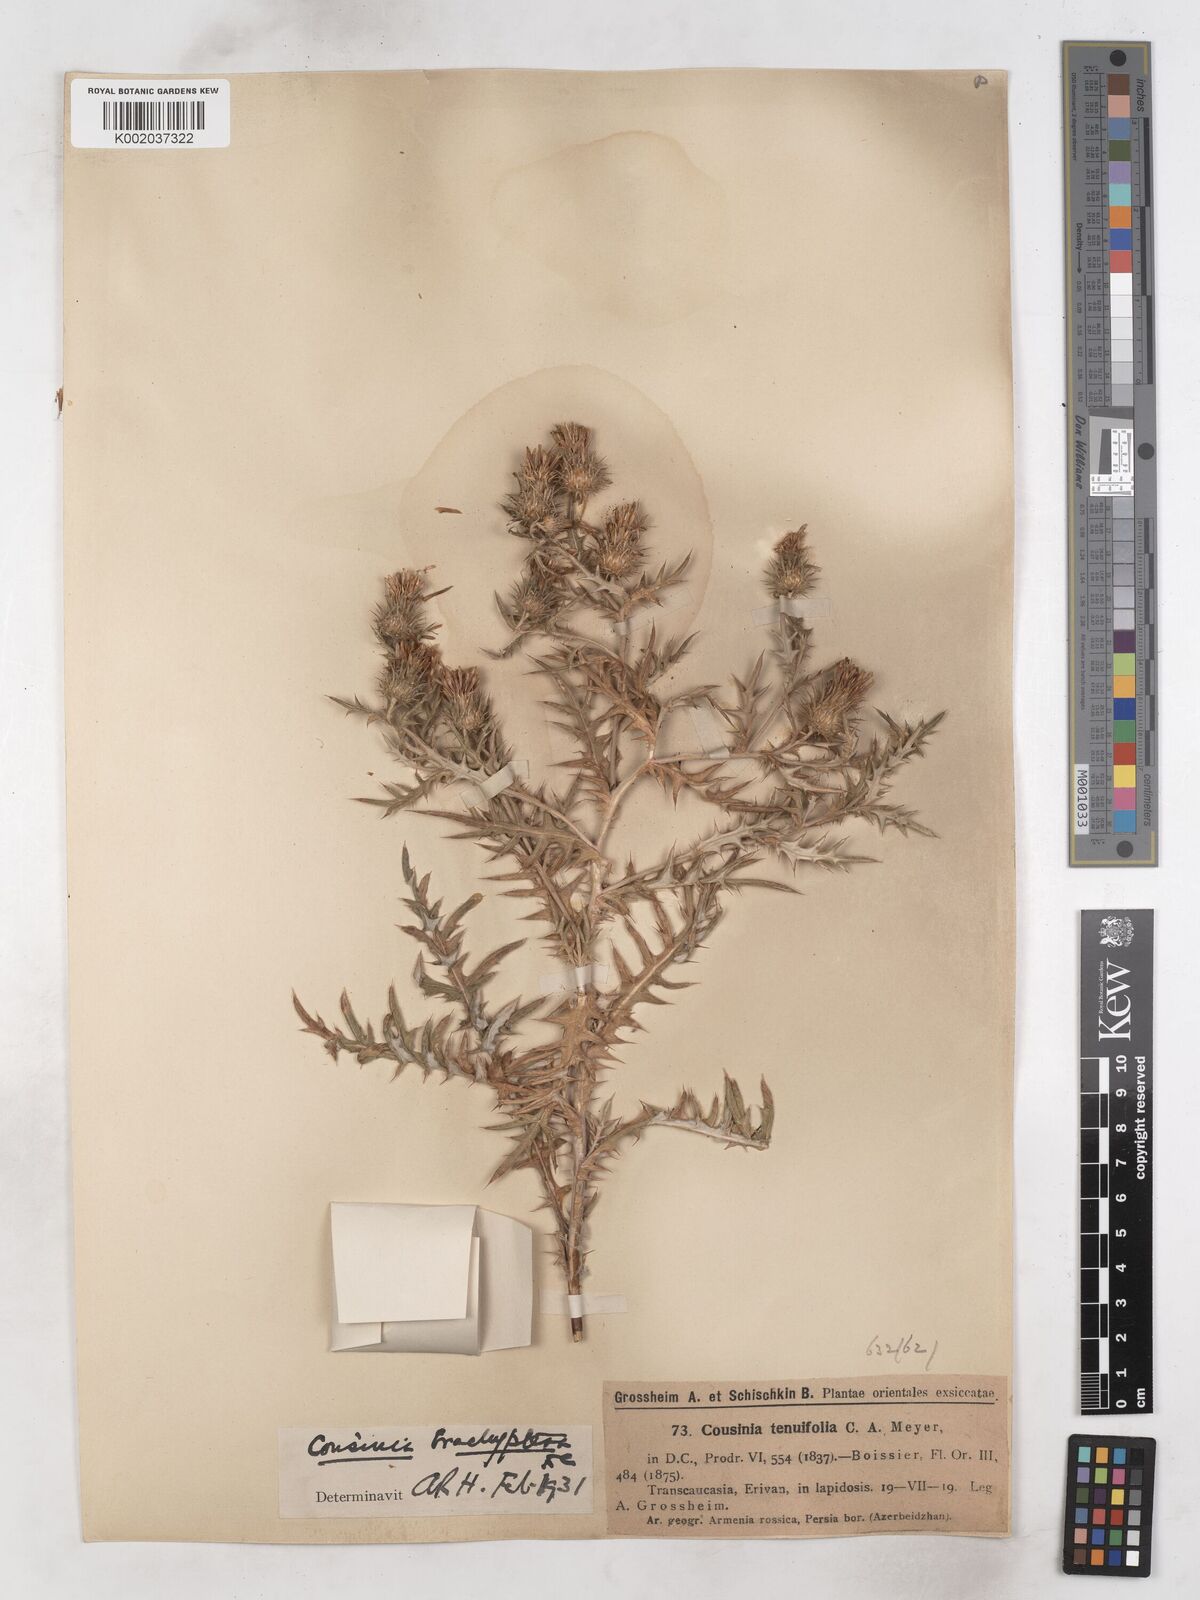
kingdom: Plantae
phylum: Tracheophyta
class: Magnoliopsida
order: Asterales
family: Asteraceae
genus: Cousinia
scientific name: Cousinia brachyptera
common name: Short-winged cousinia
